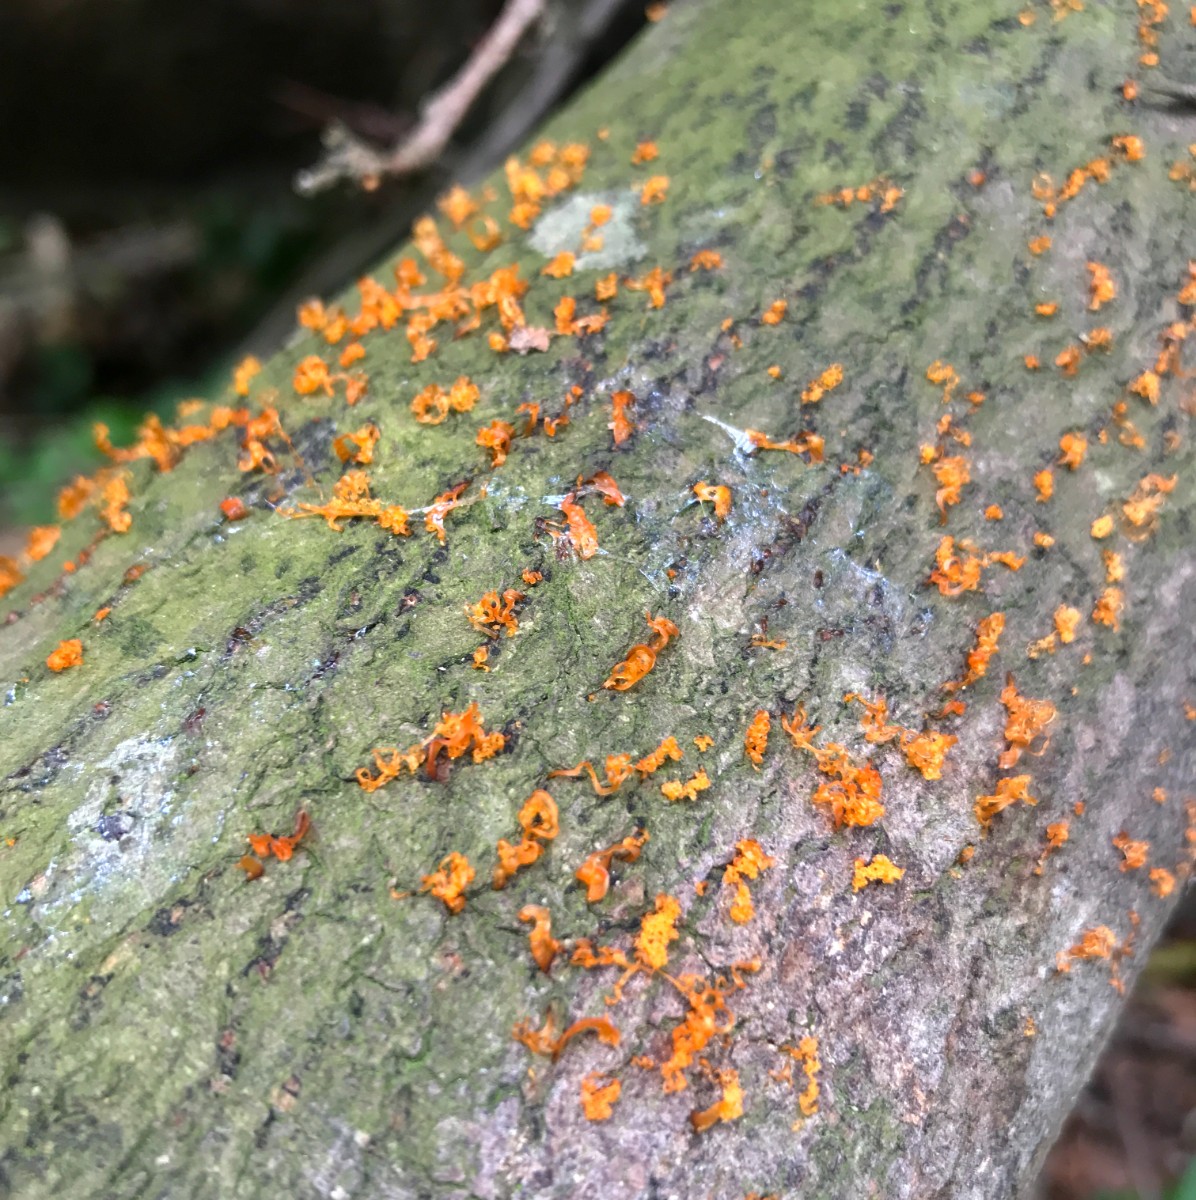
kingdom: Fungi
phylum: Ascomycota
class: Sordariomycetes
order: Xylariales
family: Diatrypaceae
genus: Eutypella
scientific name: Eutypella quaternata
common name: bøge-korsprik
